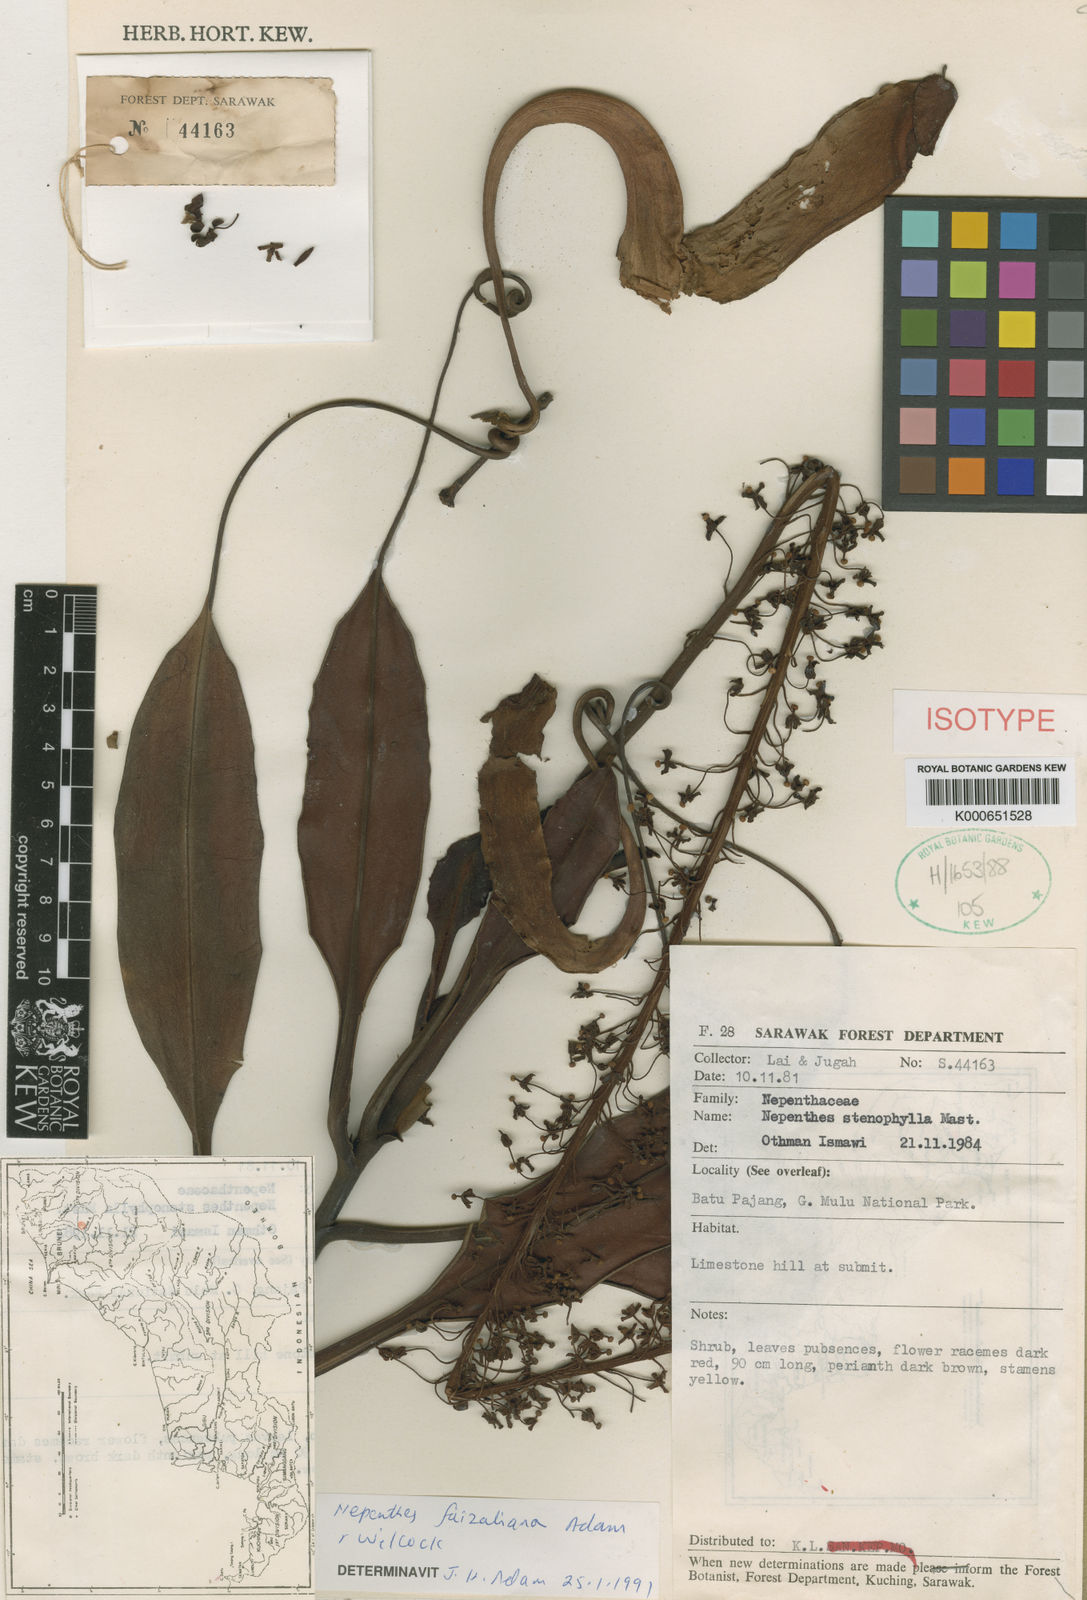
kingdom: Plantae
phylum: Tracheophyta
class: Magnoliopsida
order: Caryophyllales
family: Nepenthaceae
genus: Nepenthes
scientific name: Nepenthes faizaliana
